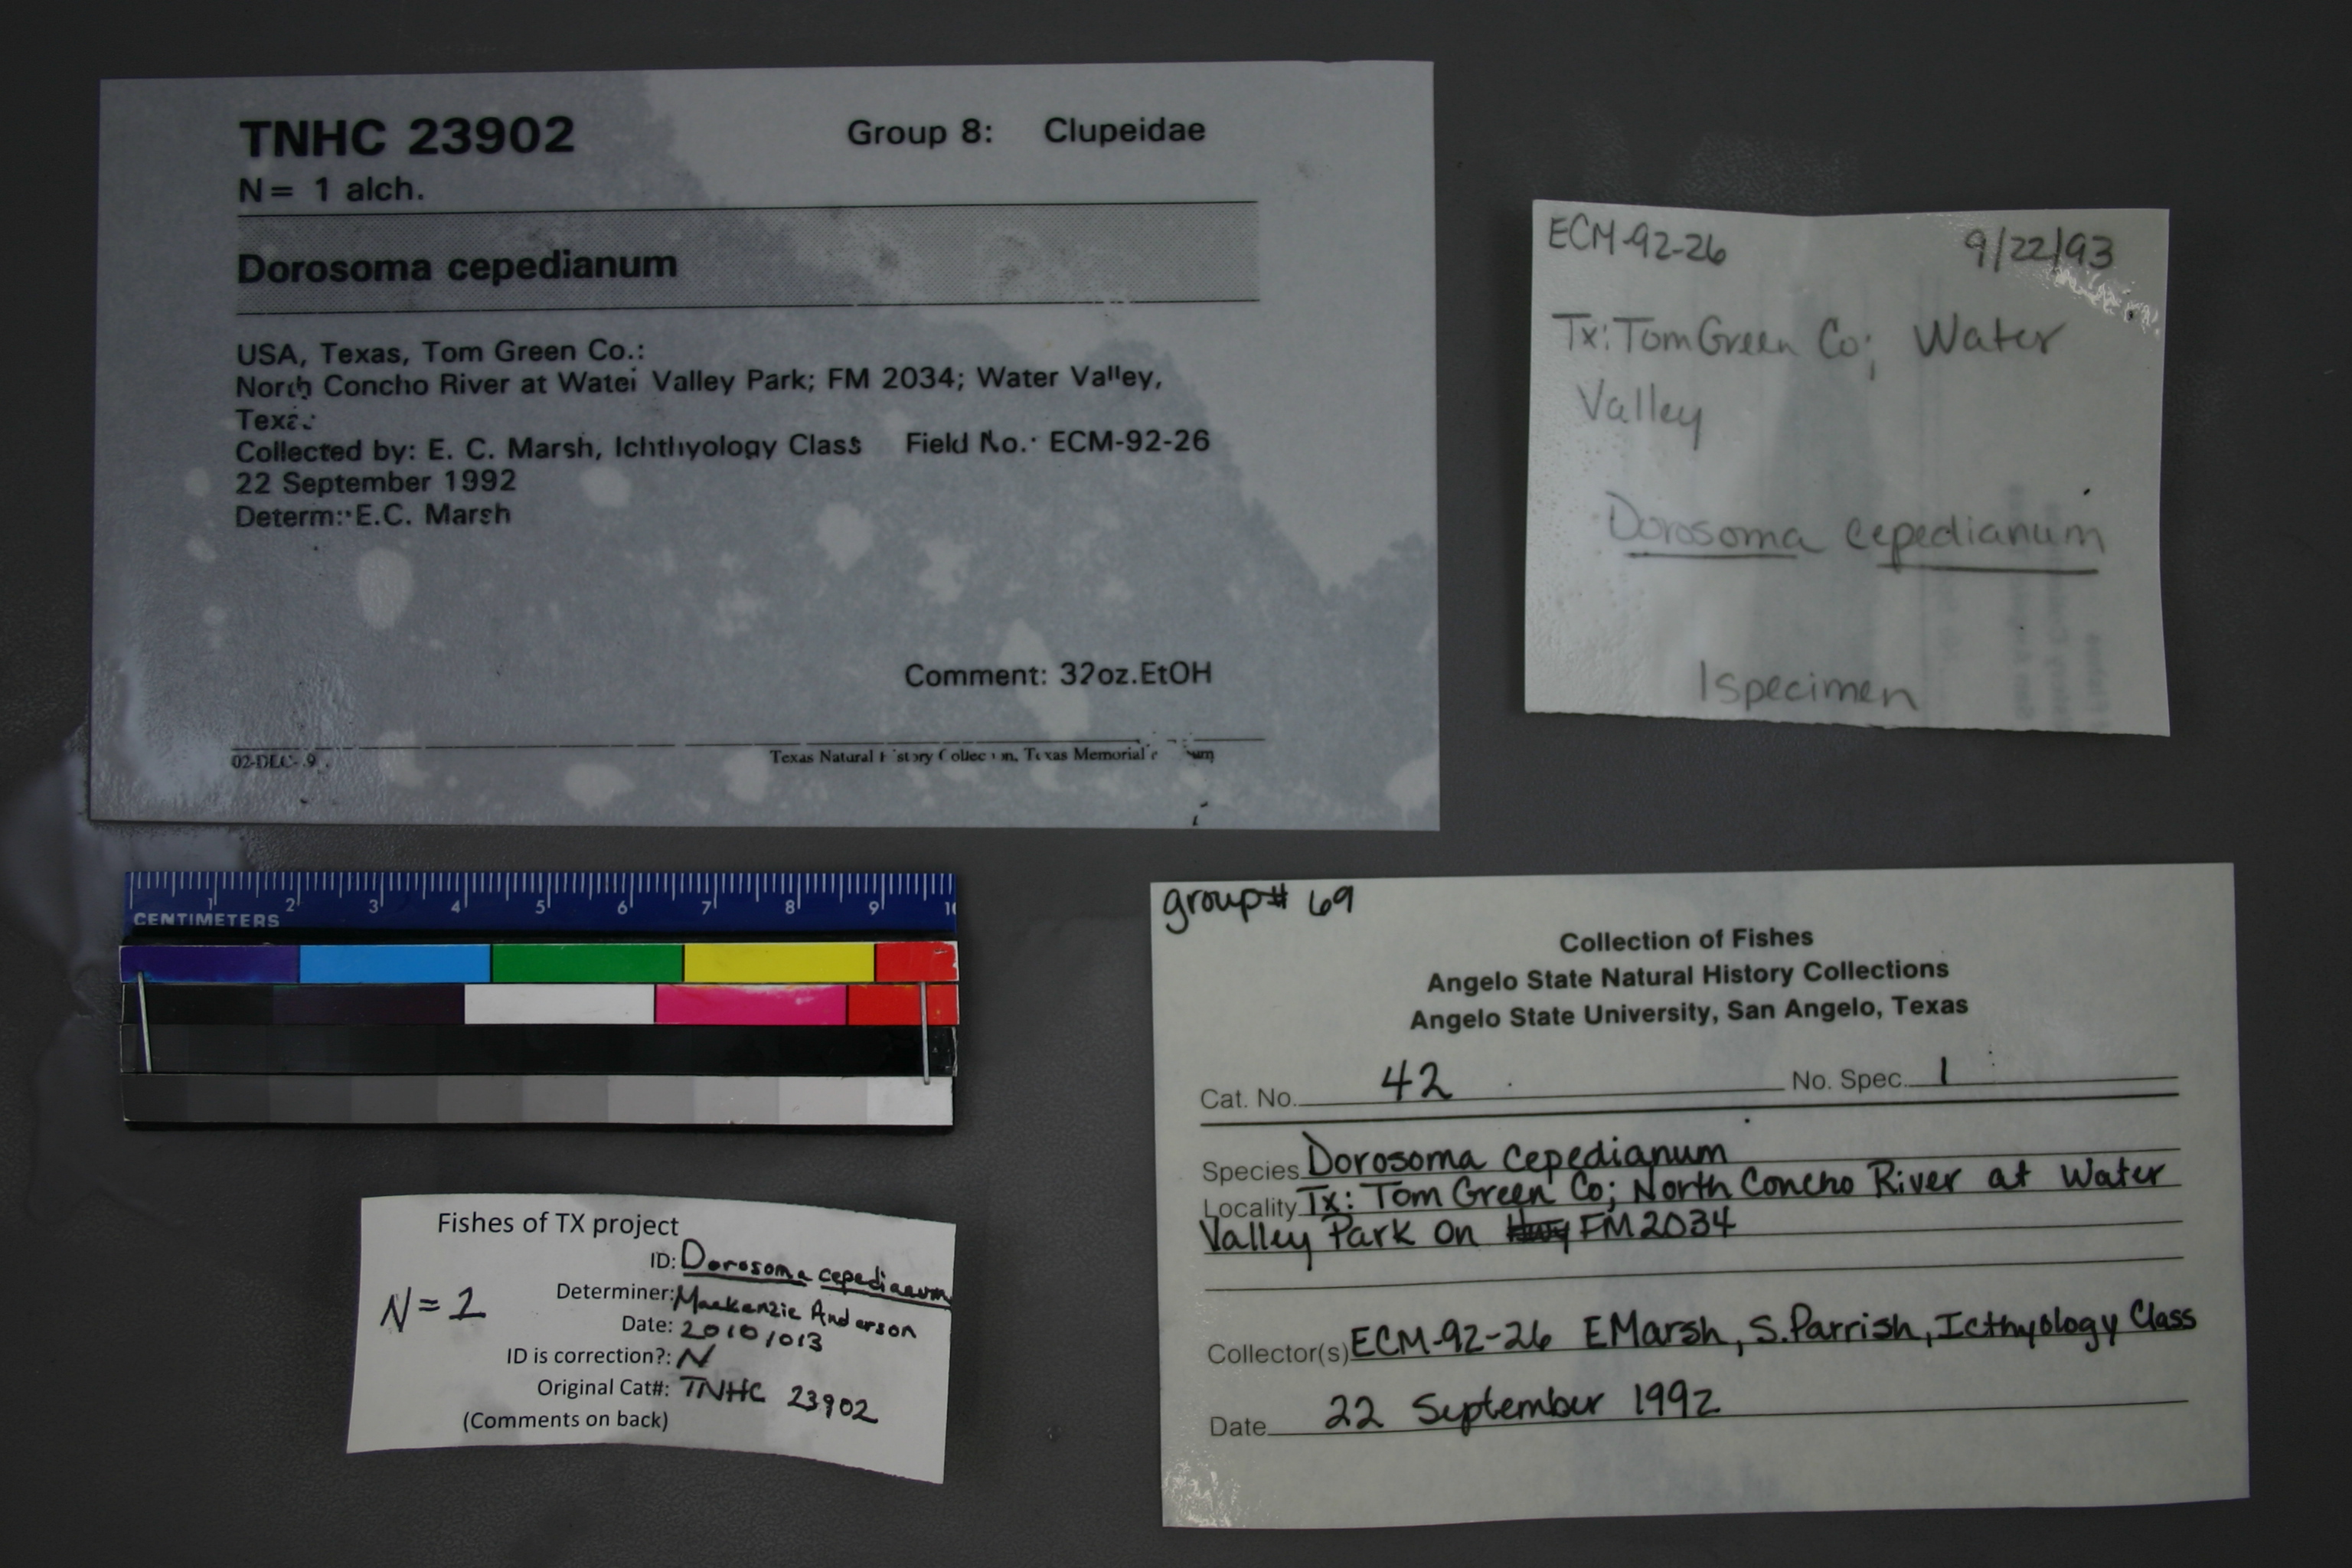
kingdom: Animalia
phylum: Chordata
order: Clupeiformes
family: Clupeidae
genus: Dorosoma
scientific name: Dorosoma cepedianum
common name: Gizzard shad
